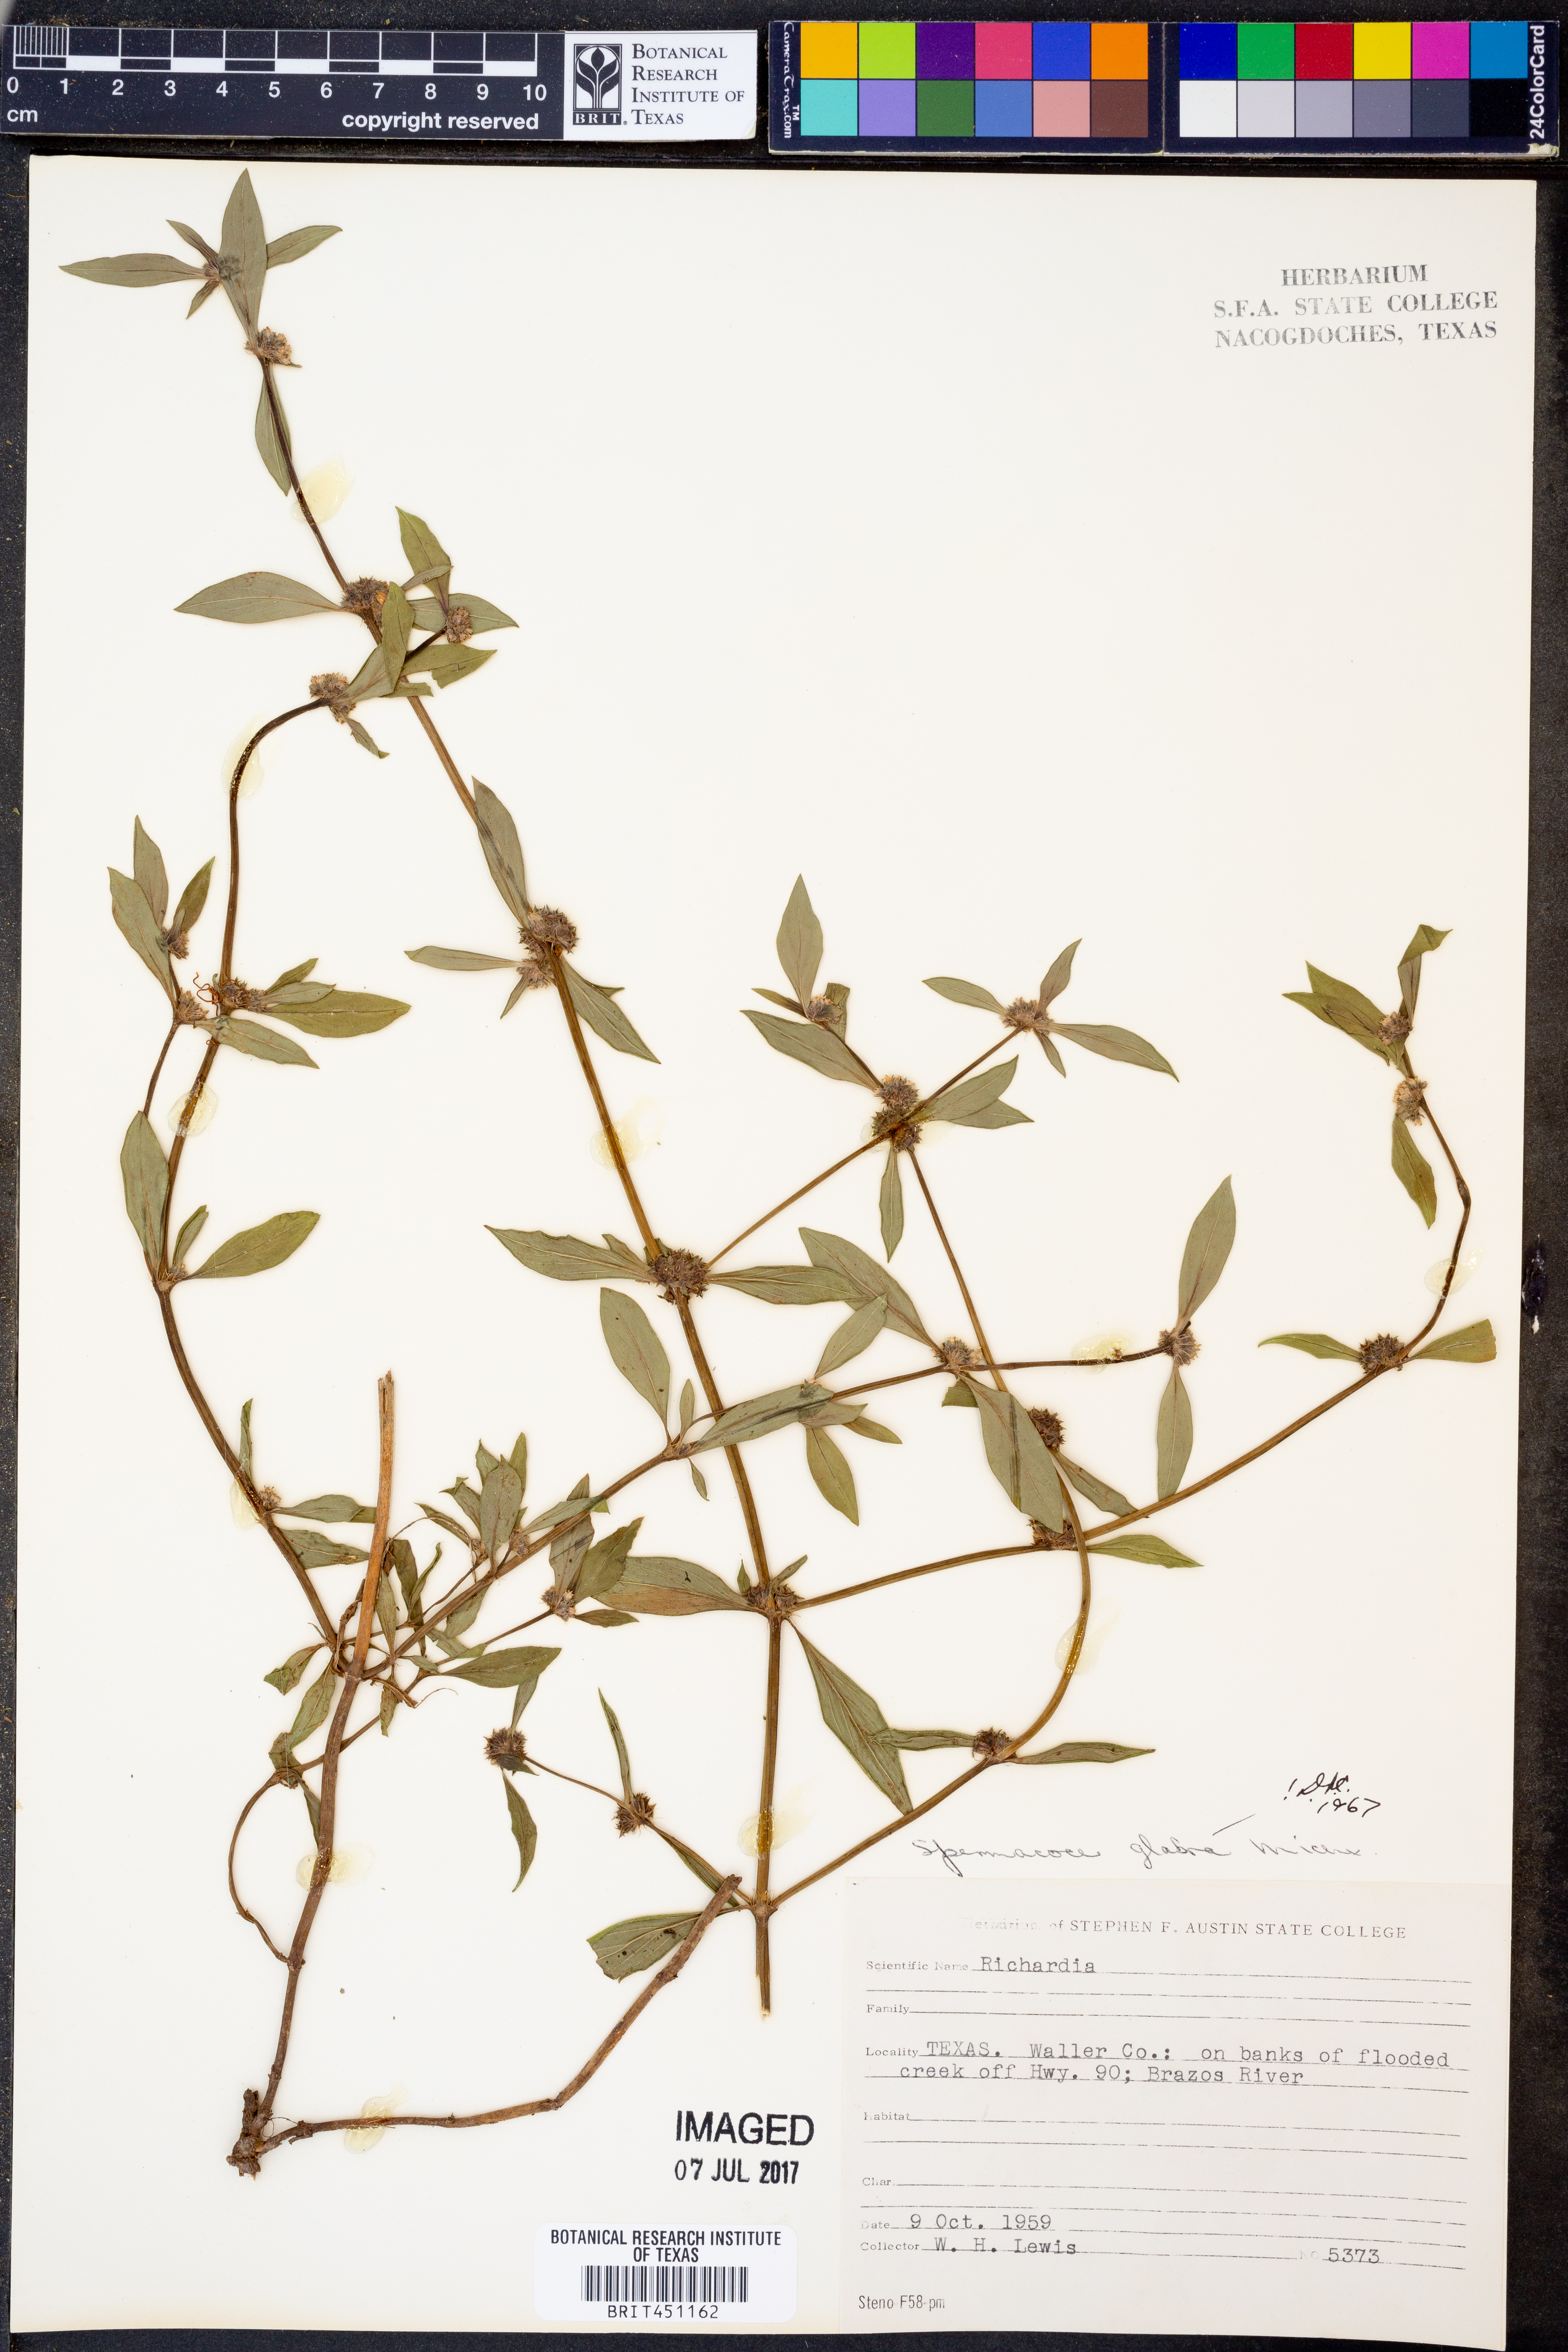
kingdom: Plantae
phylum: Tracheophyta
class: Magnoliopsida
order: Gentianales
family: Rubiaceae
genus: Spermacoce
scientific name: Spermacoce glabra
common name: Smooth buttonweed
